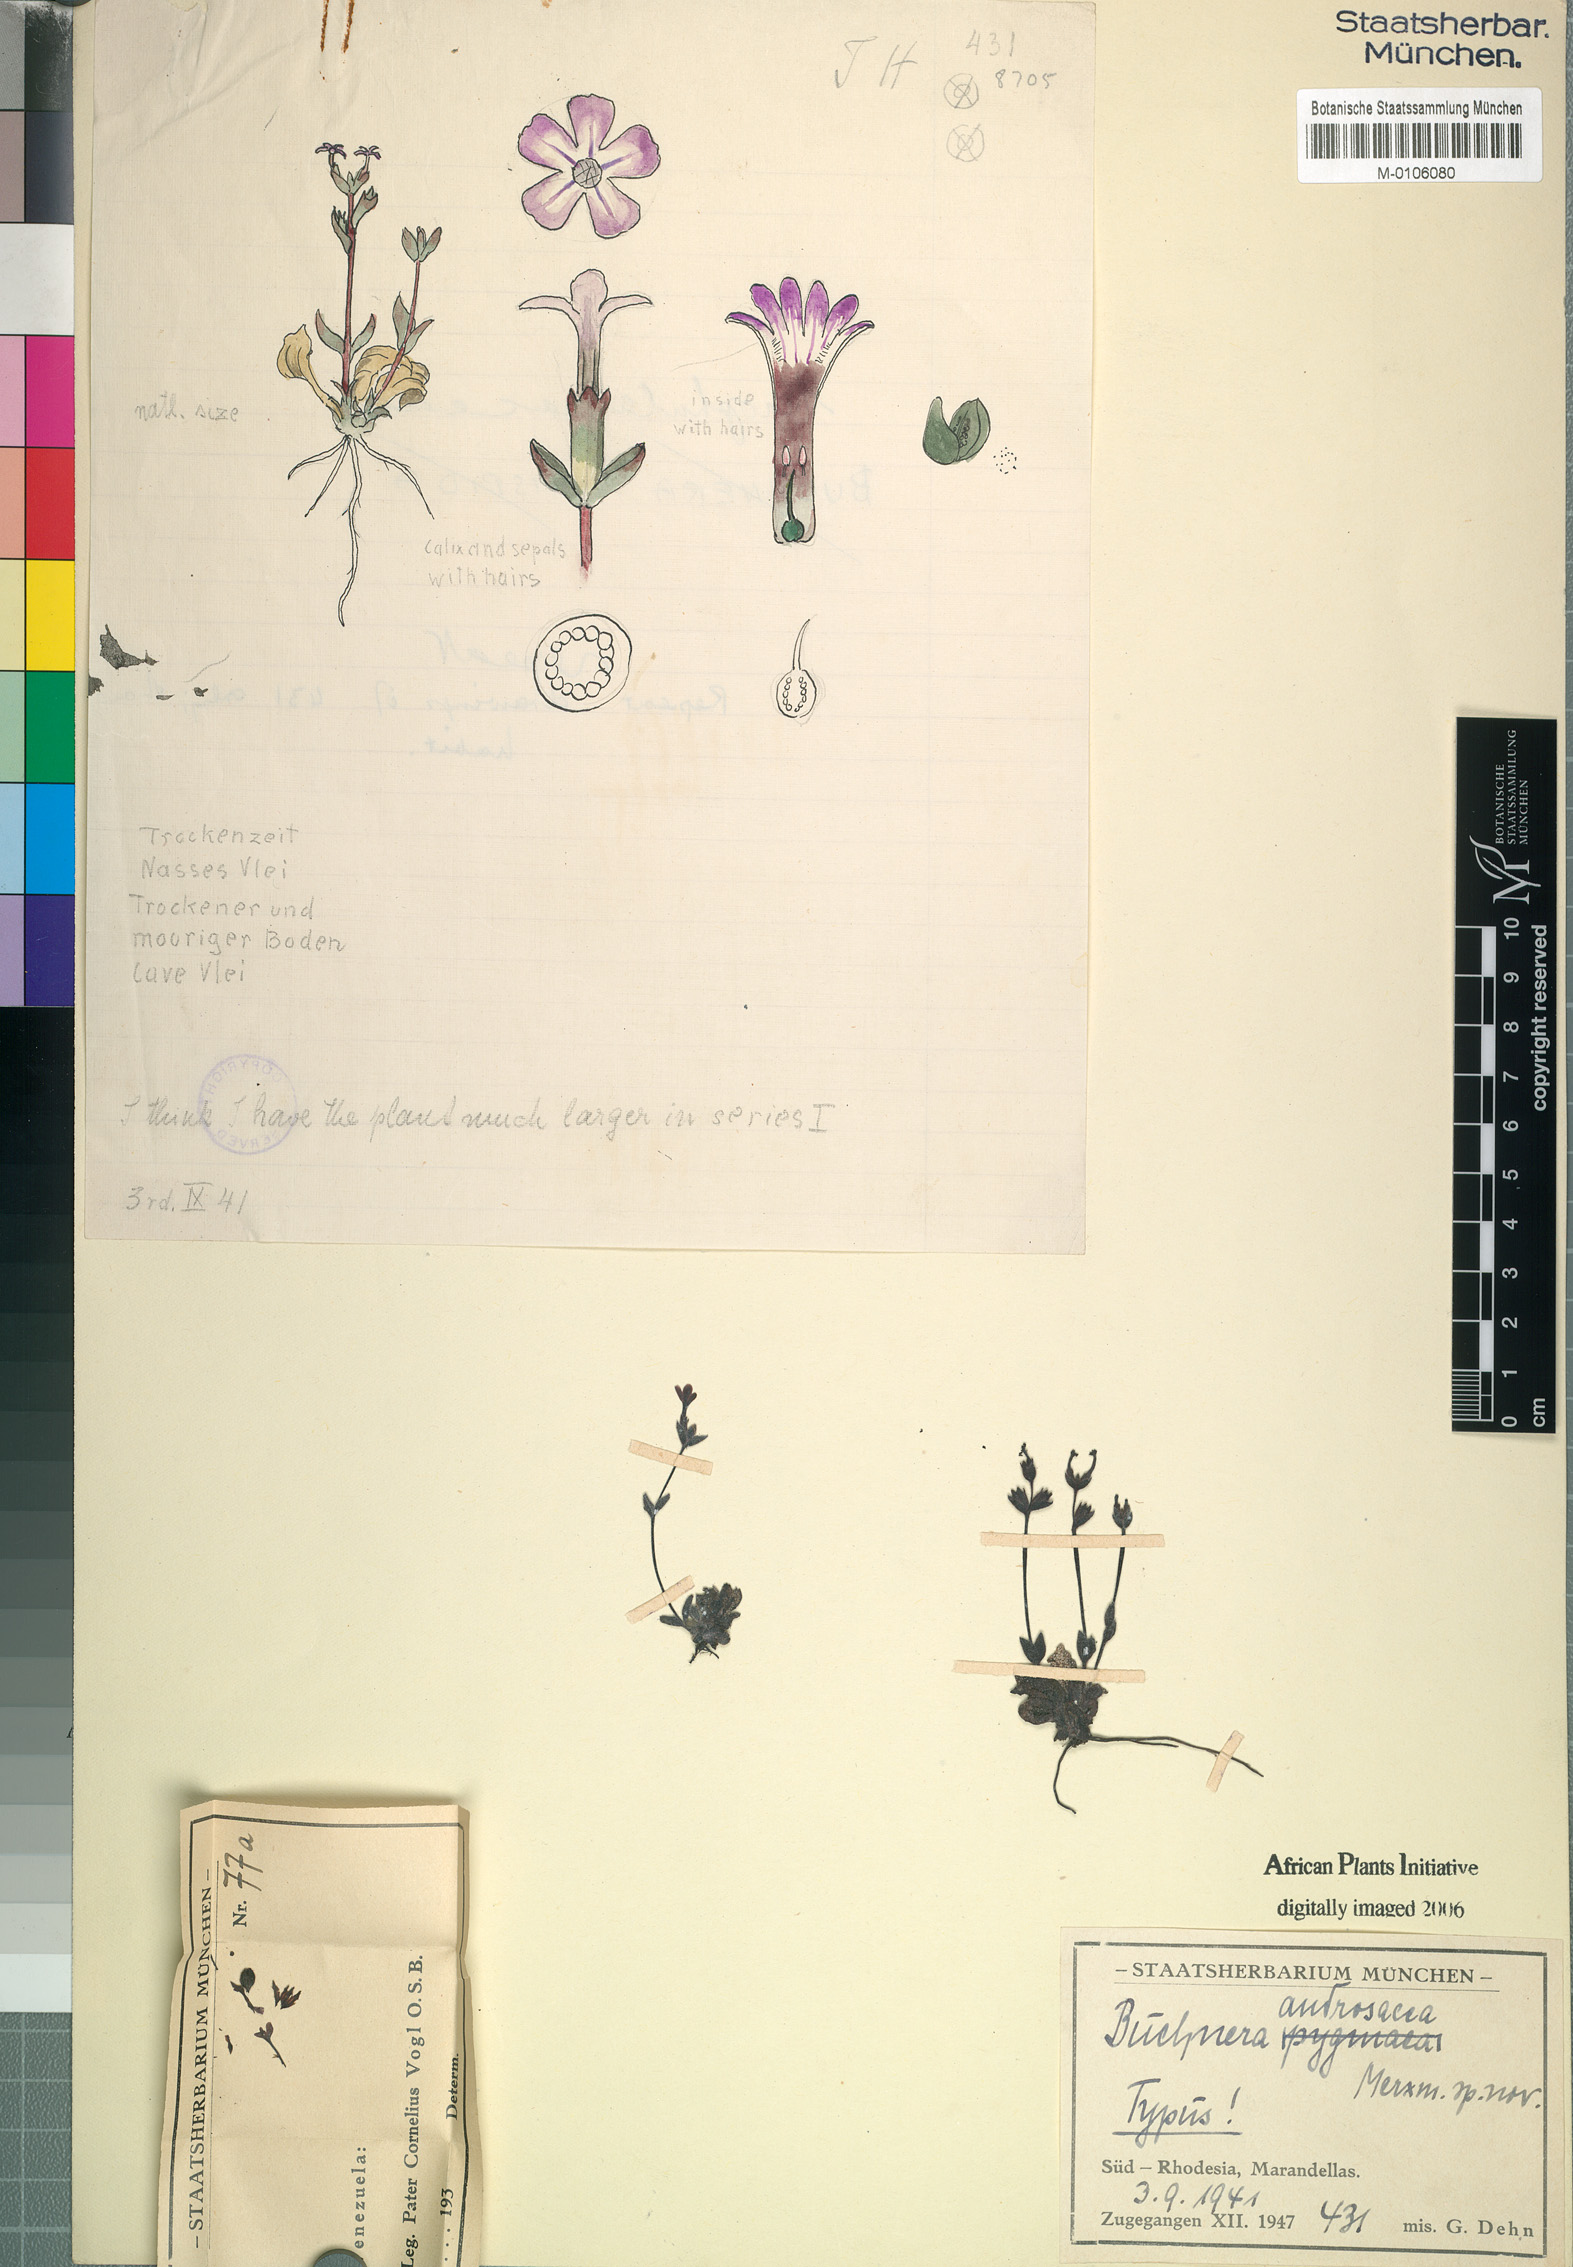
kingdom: Plantae
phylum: Tracheophyta
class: Magnoliopsida
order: Lamiales
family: Orobanchaceae
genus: Buchnera
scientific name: Buchnera androsacea
